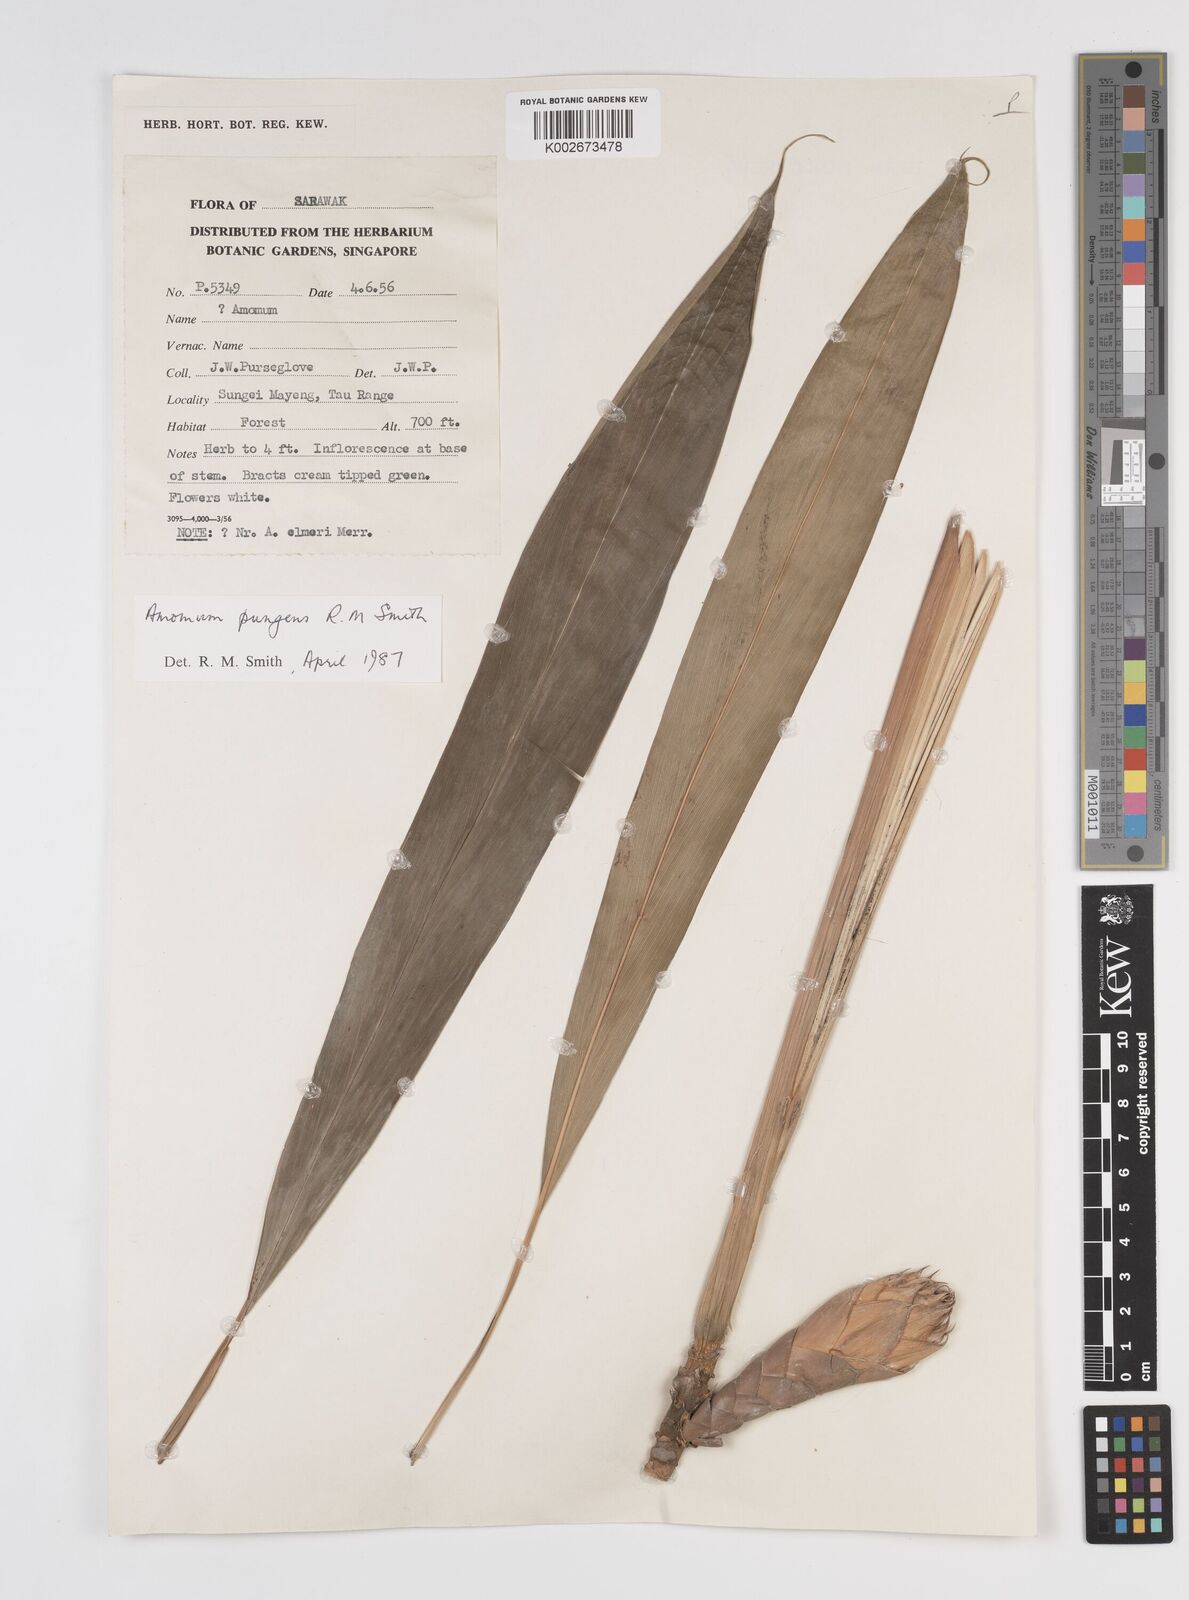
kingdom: Plantae
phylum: Tracheophyta
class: Liliopsida
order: Zingiberales
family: Zingiberaceae
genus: Epiamomum
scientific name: Epiamomum pungens
